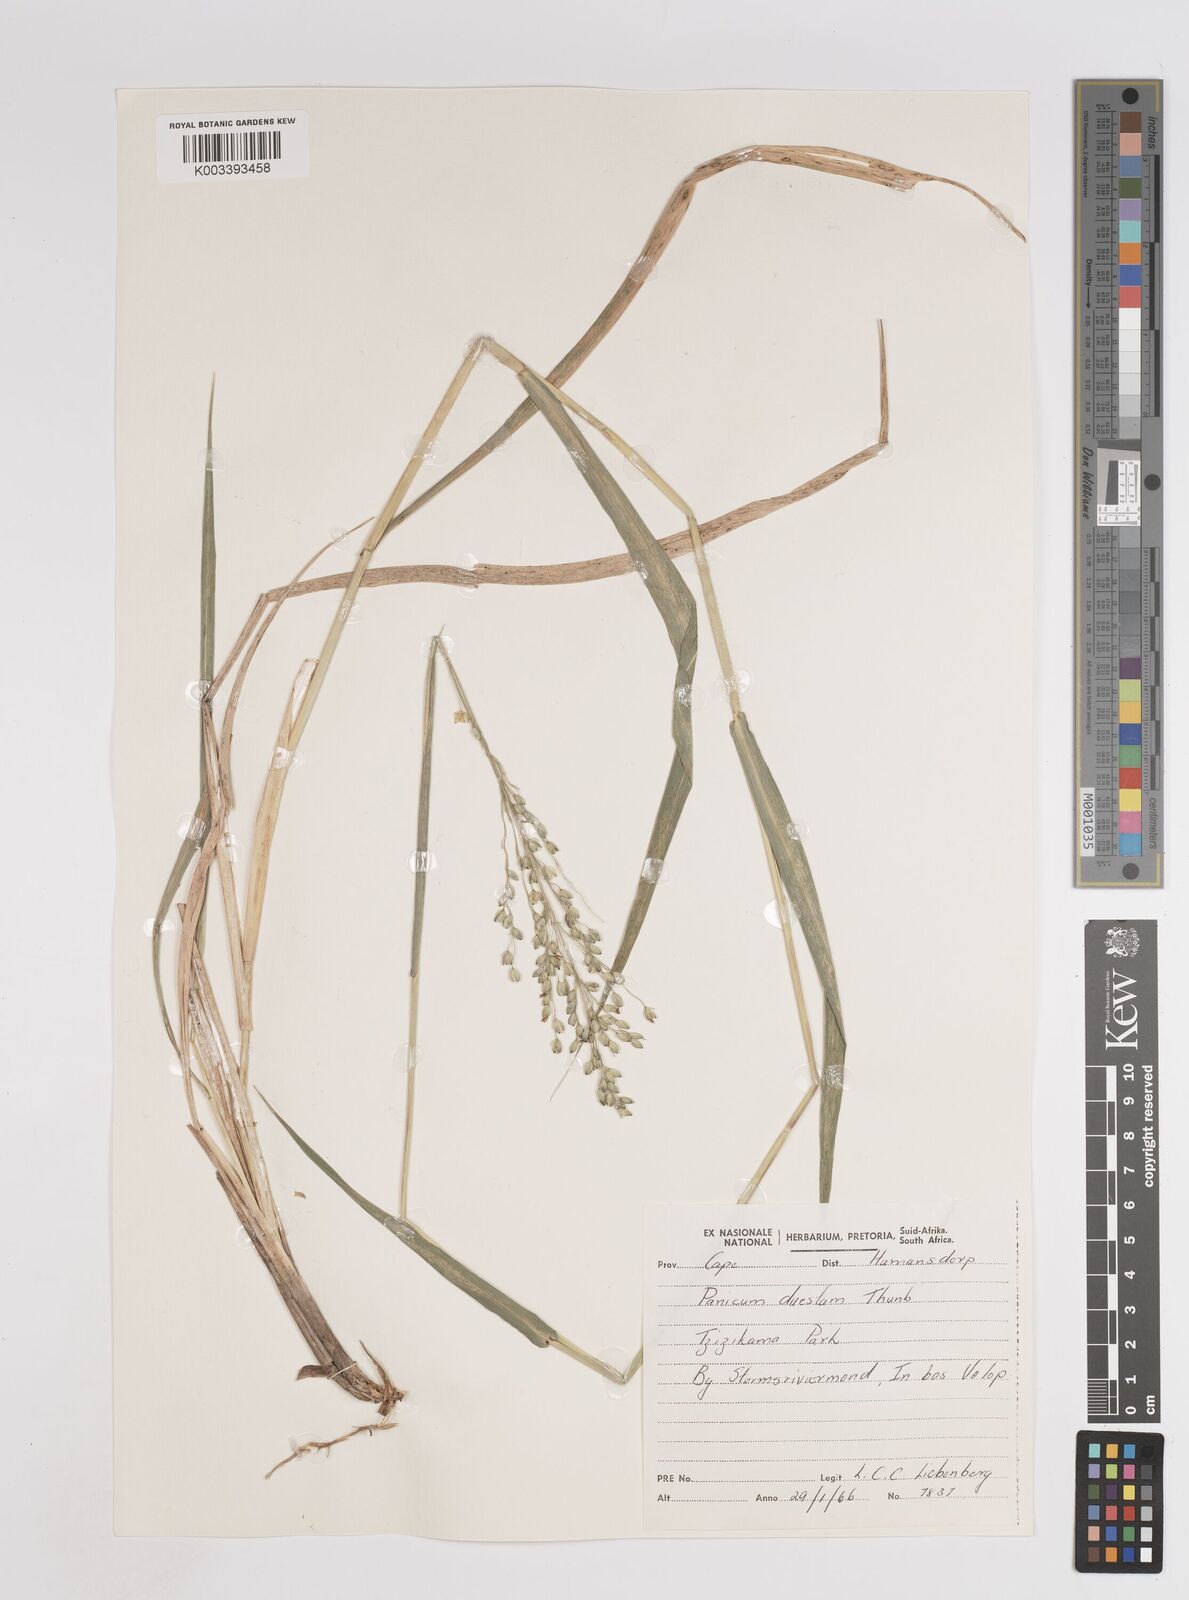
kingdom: Plantae
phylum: Tracheophyta
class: Liliopsida
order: Poales
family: Poaceae
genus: Panicum
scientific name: Panicum deustum
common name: Reed panicum
